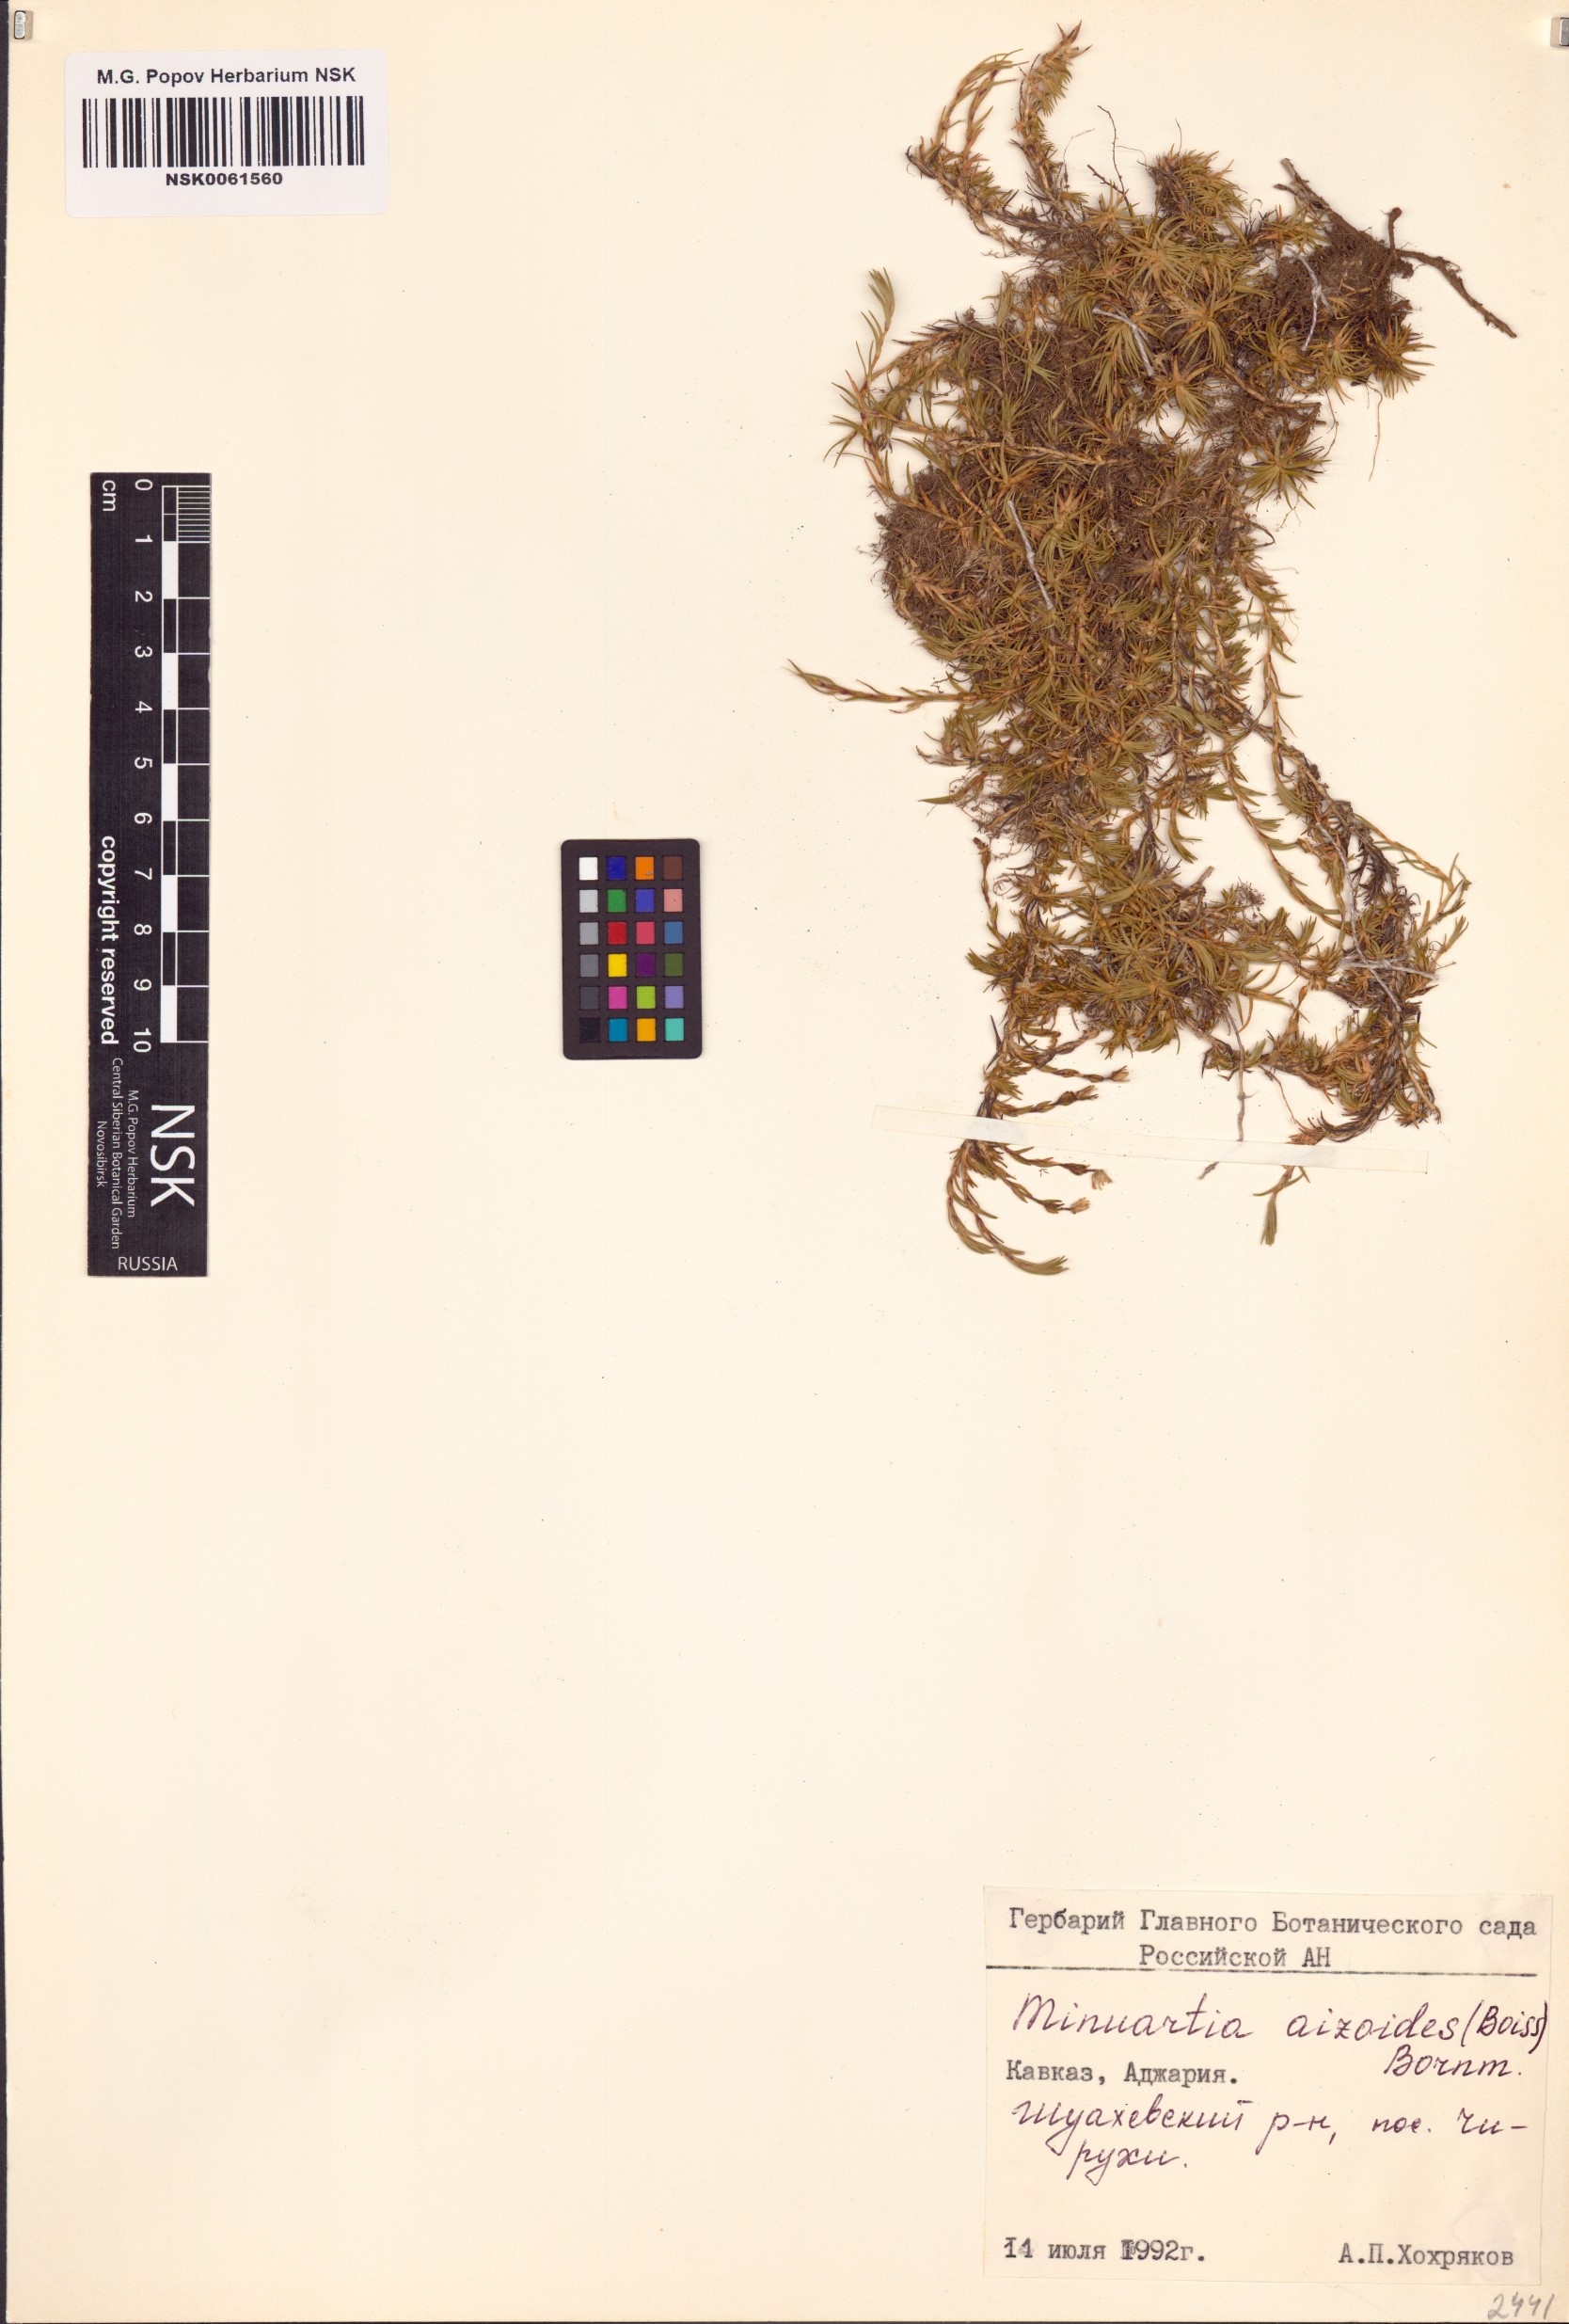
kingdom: Plantae
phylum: Tracheophyta
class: Magnoliopsida
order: Caryophyllales
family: Caryophyllaceae
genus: Pseudocherleria
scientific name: Pseudocherleria aizoides
